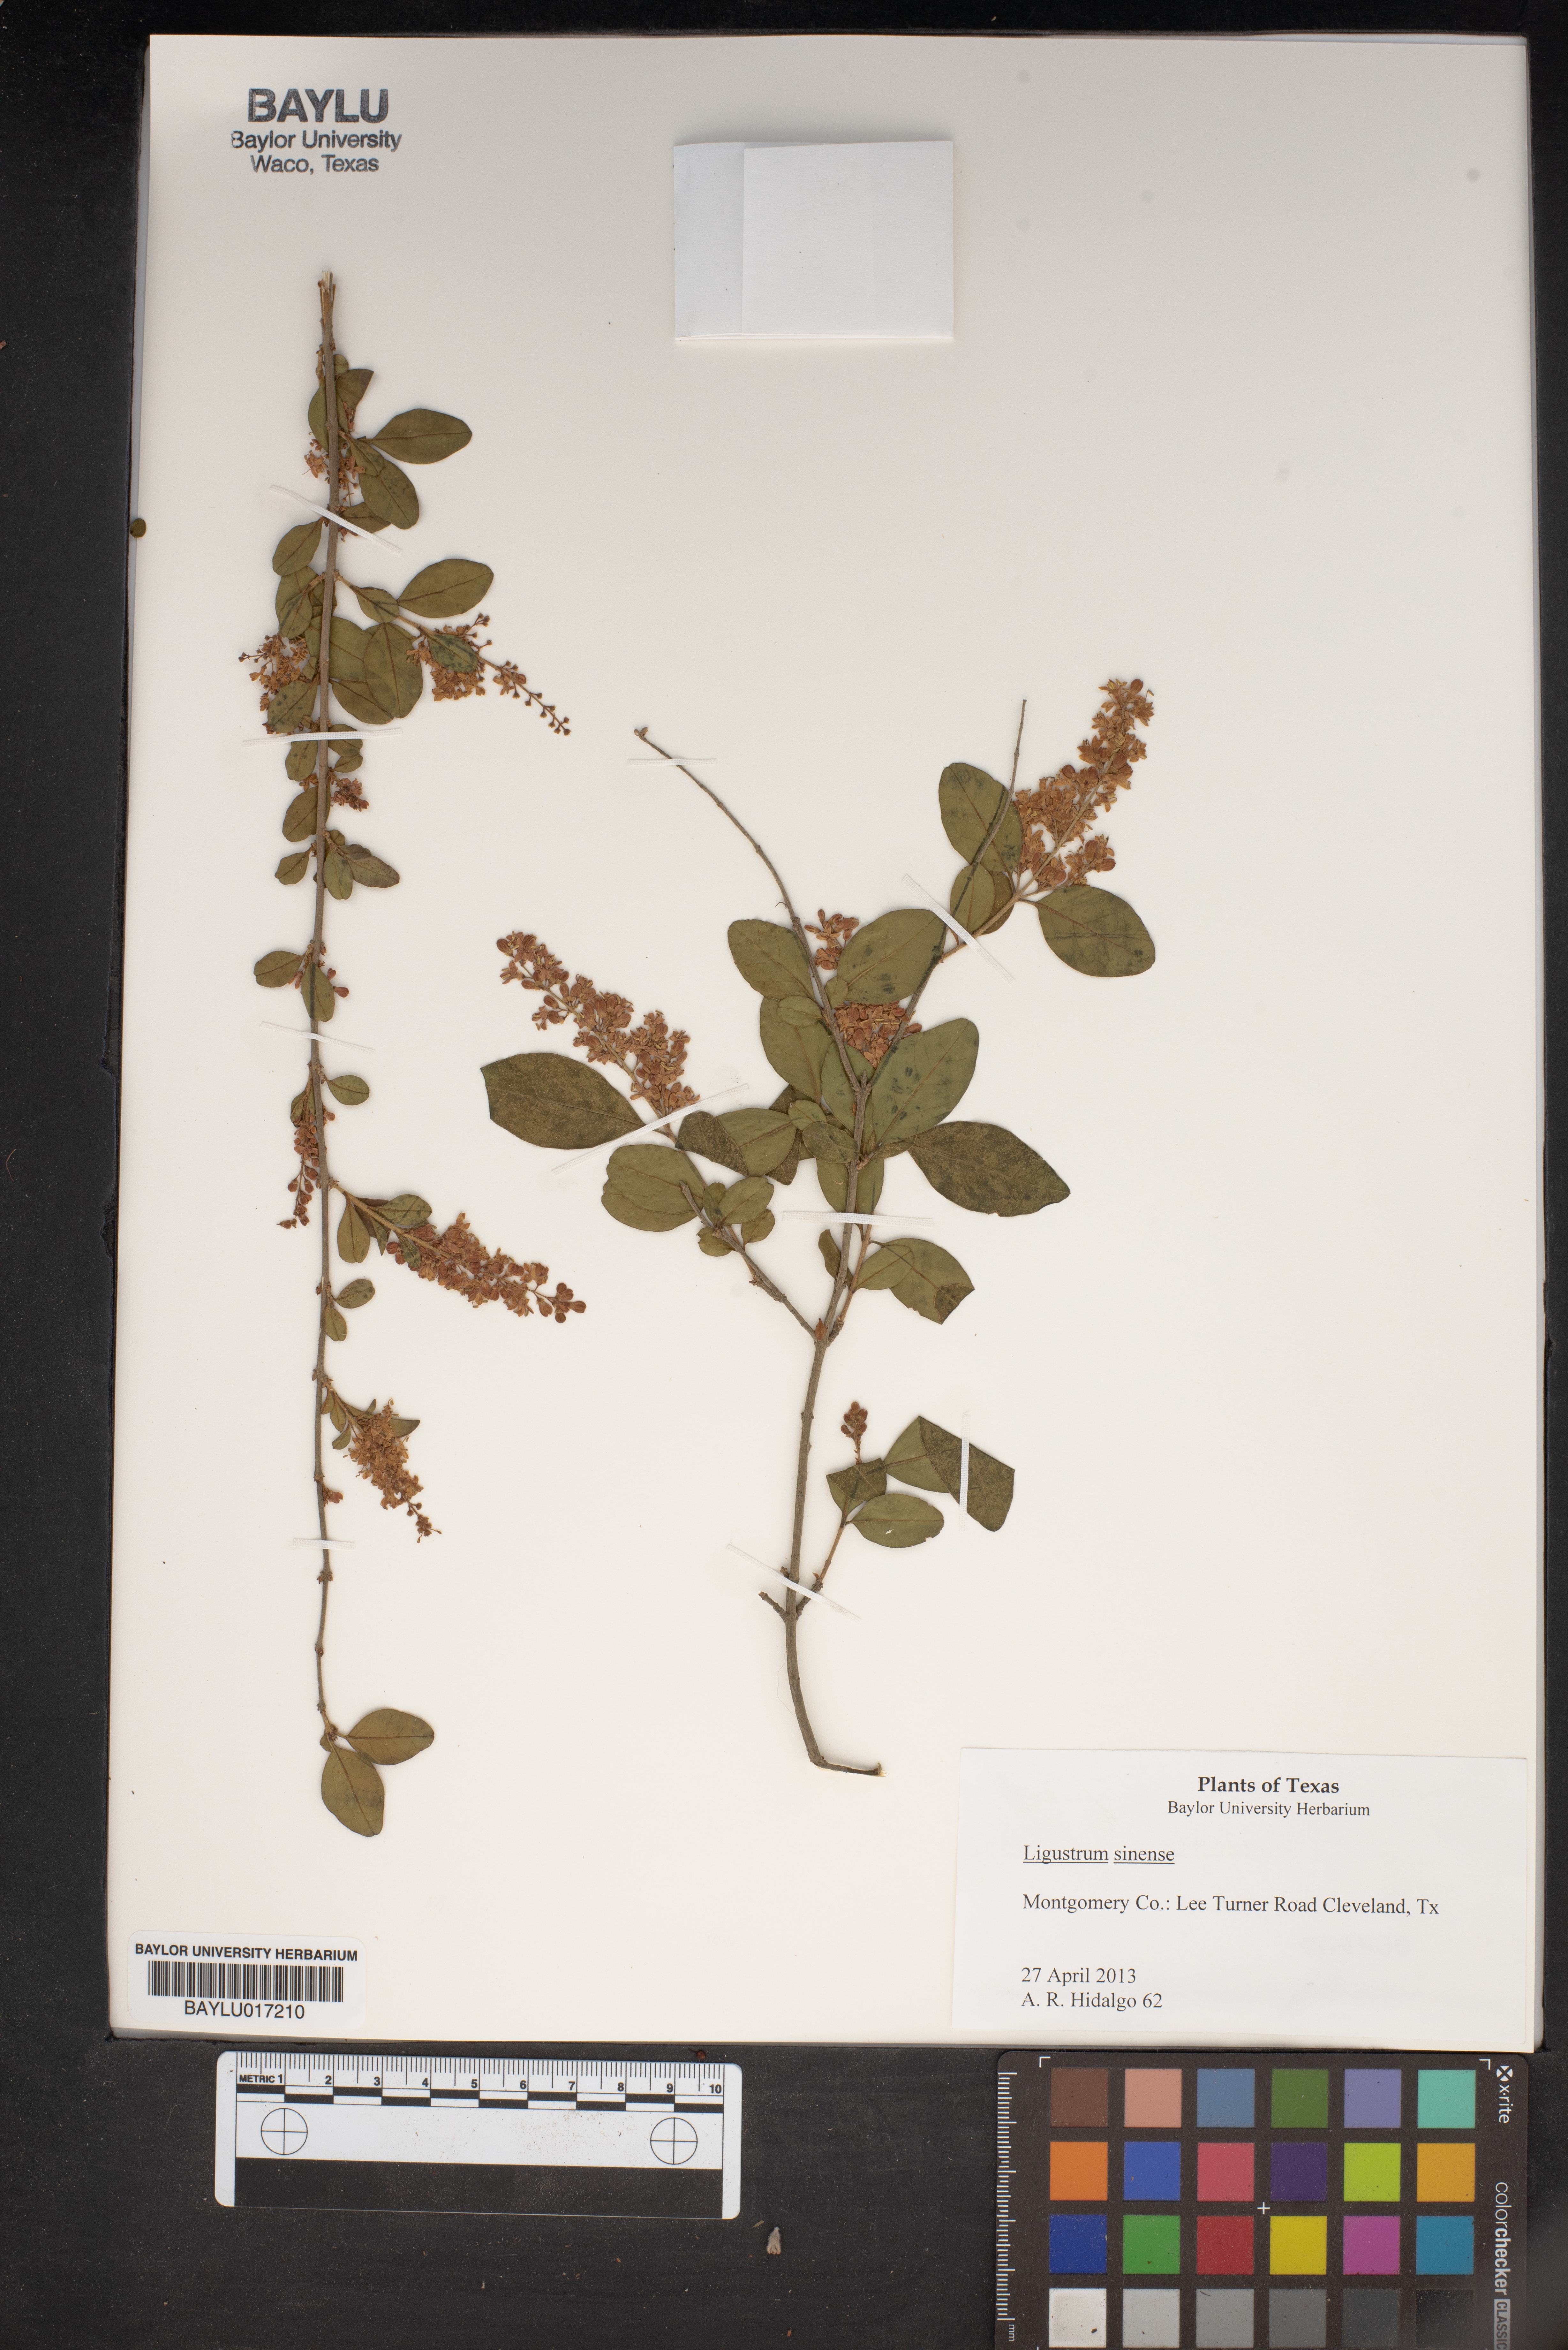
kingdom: Plantae
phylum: Tracheophyta
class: Magnoliopsida
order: Lamiales
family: Oleaceae
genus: Ligustrum
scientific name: Ligustrum sinense
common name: Chinese privet
